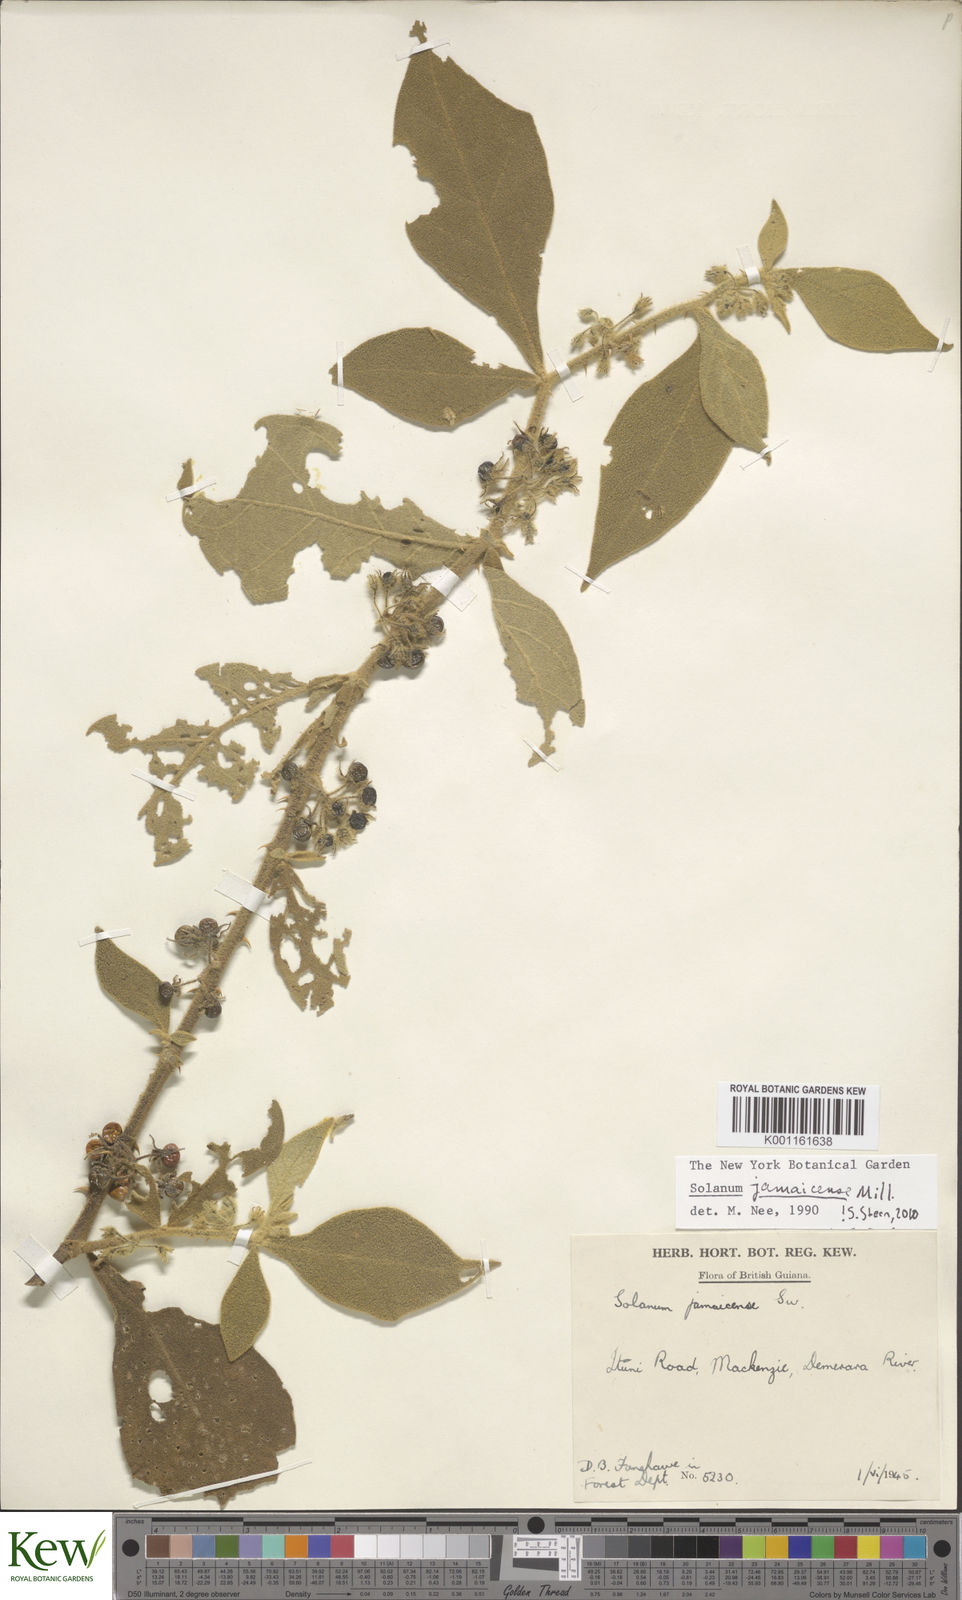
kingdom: Plantae
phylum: Tracheophyta
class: Magnoliopsida
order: Solanales
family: Solanaceae
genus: Solanum
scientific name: Solanum jamaicense
